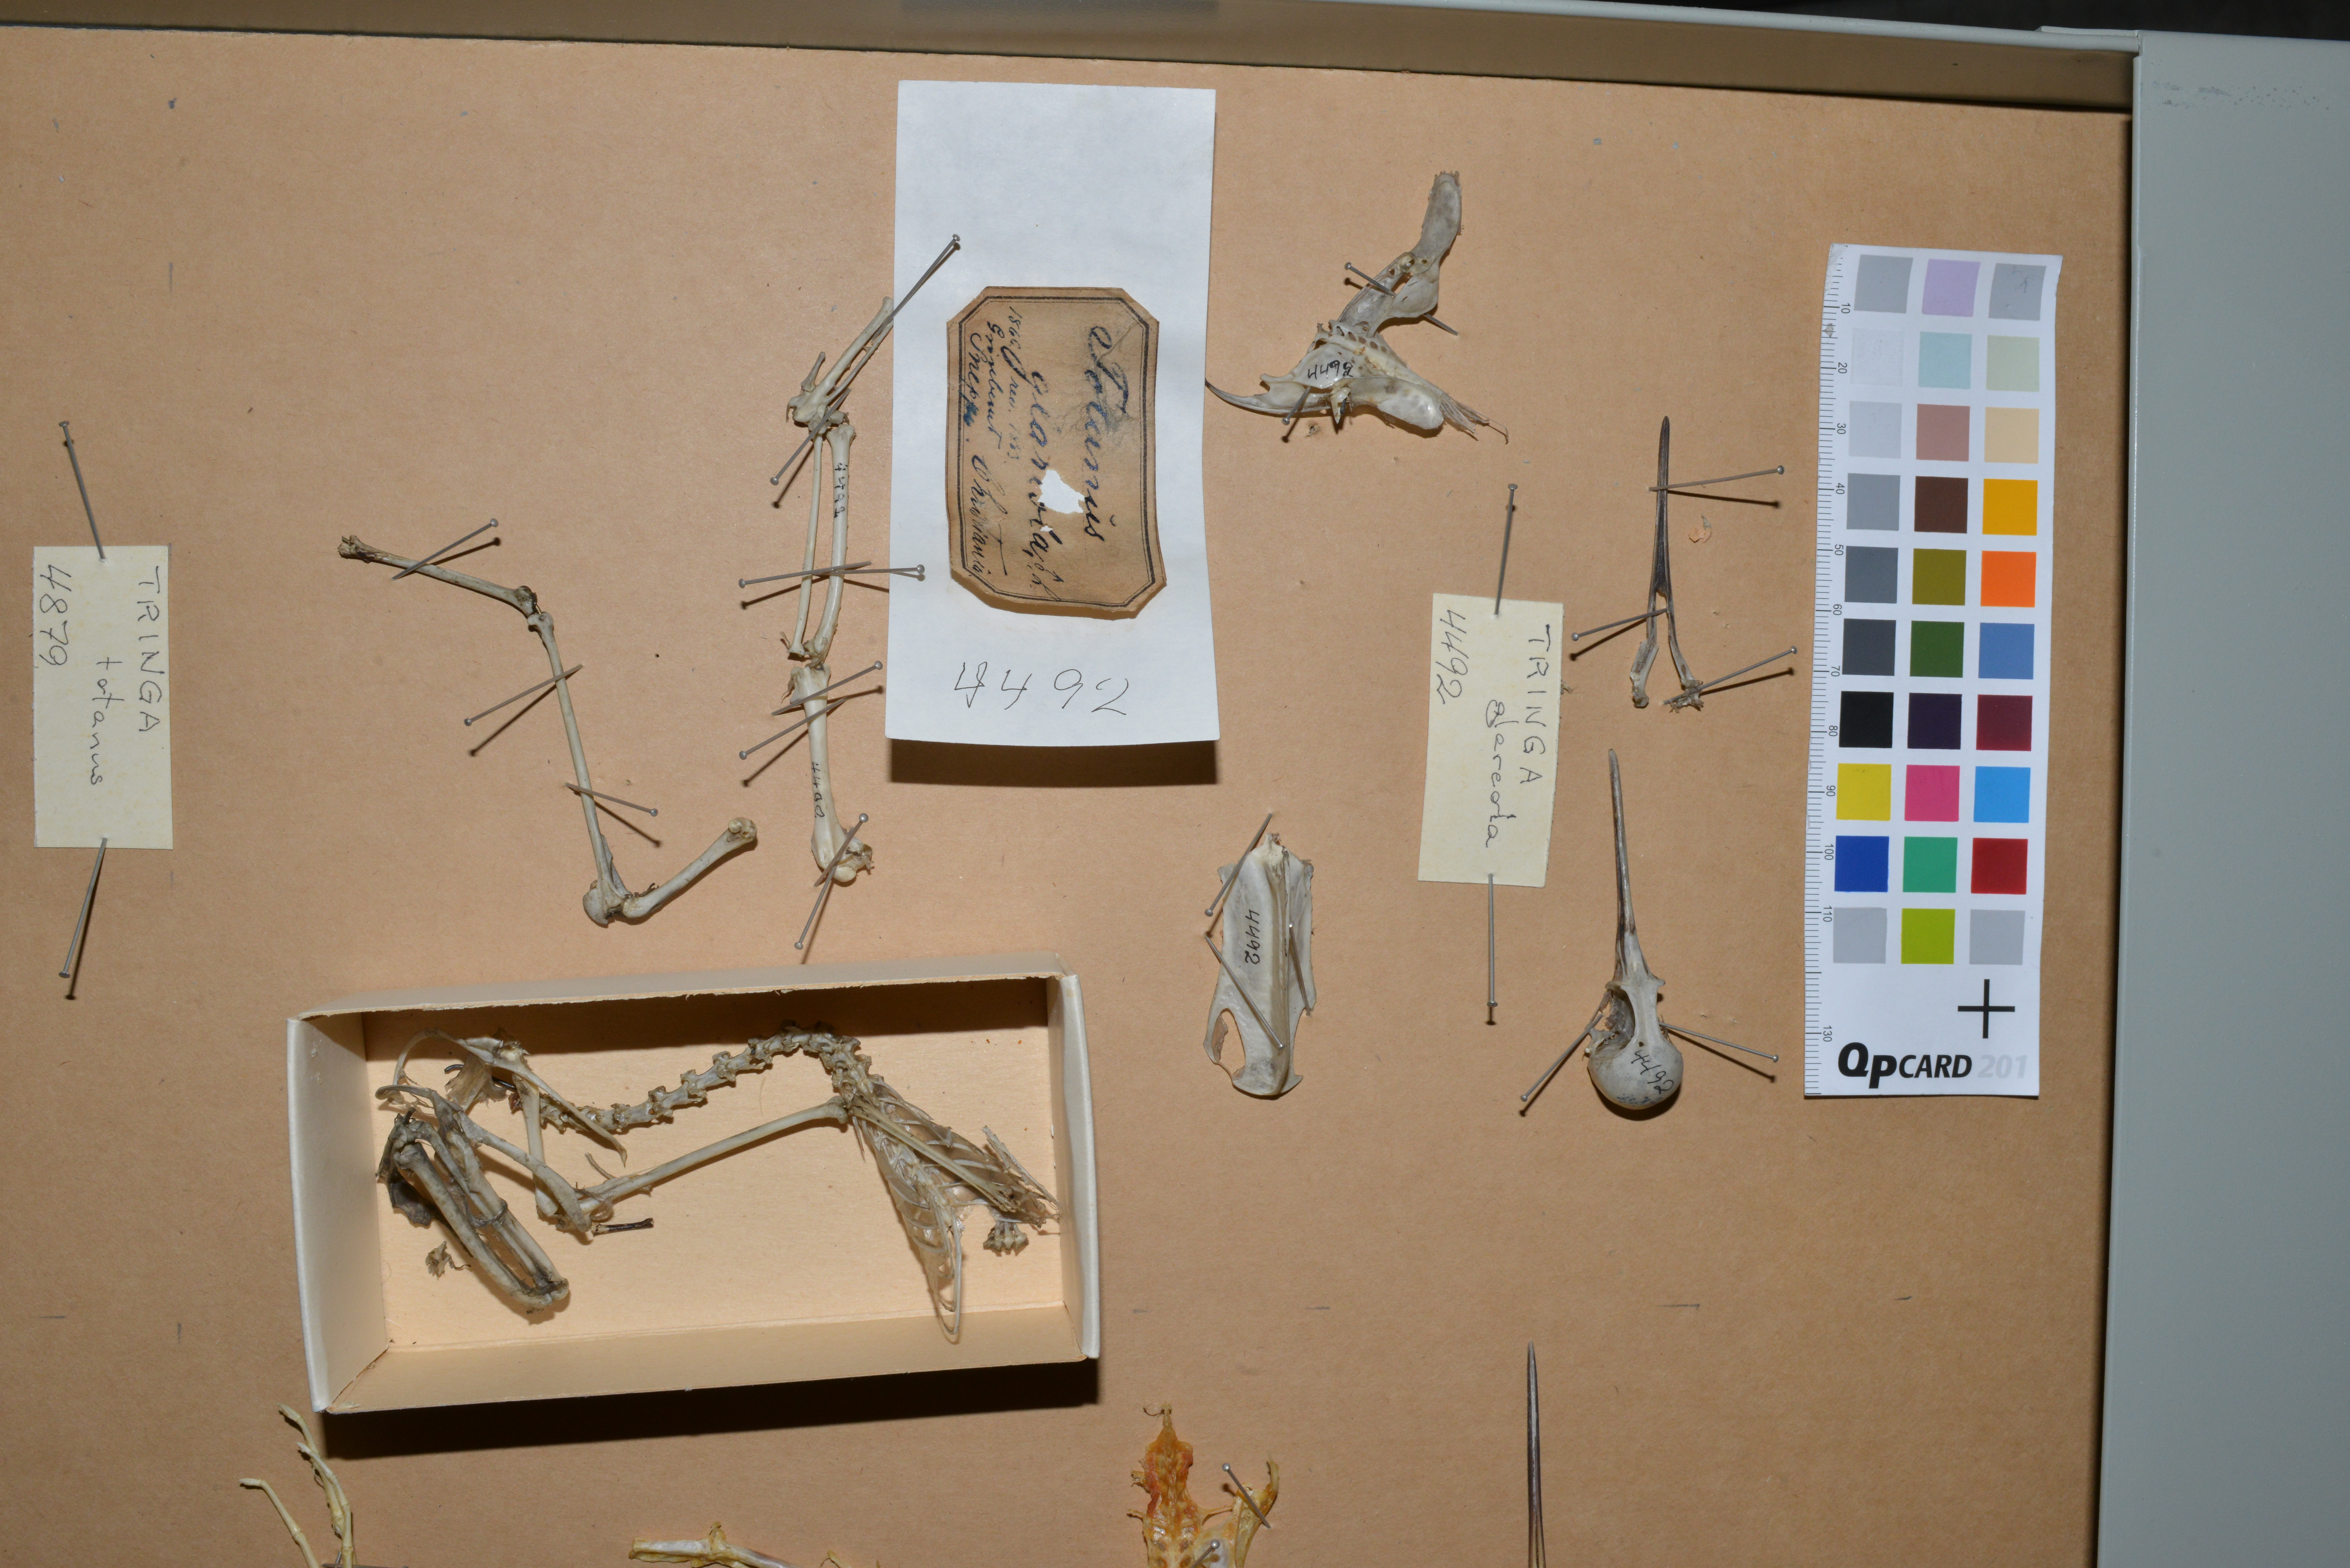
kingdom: Animalia
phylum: Chordata
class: Aves
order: Charadriiformes
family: Scolopacidae
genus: Tringa
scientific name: Tringa glareola
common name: Wood sandpiper
